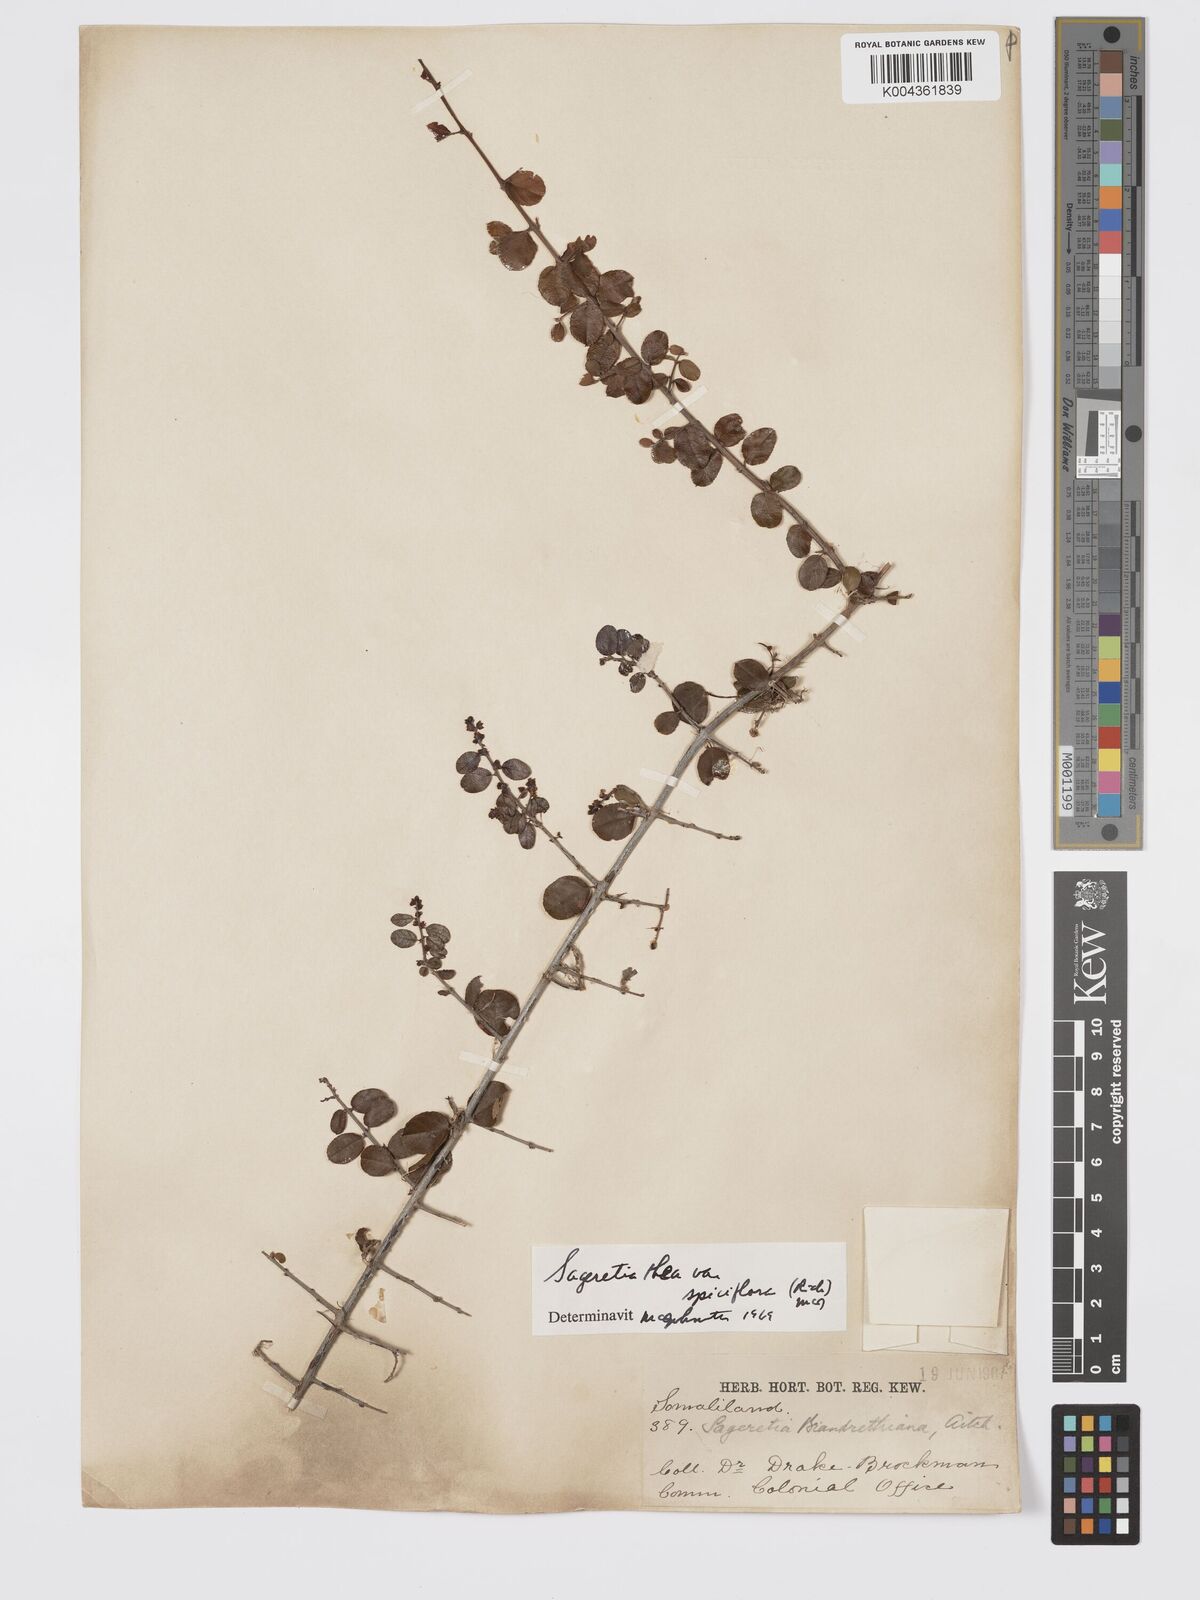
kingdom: Plantae
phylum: Tracheophyta
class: Magnoliopsida
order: Rosales
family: Rhamnaceae
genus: Sageretia
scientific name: Sageretia thea
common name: Pauper's-tea
